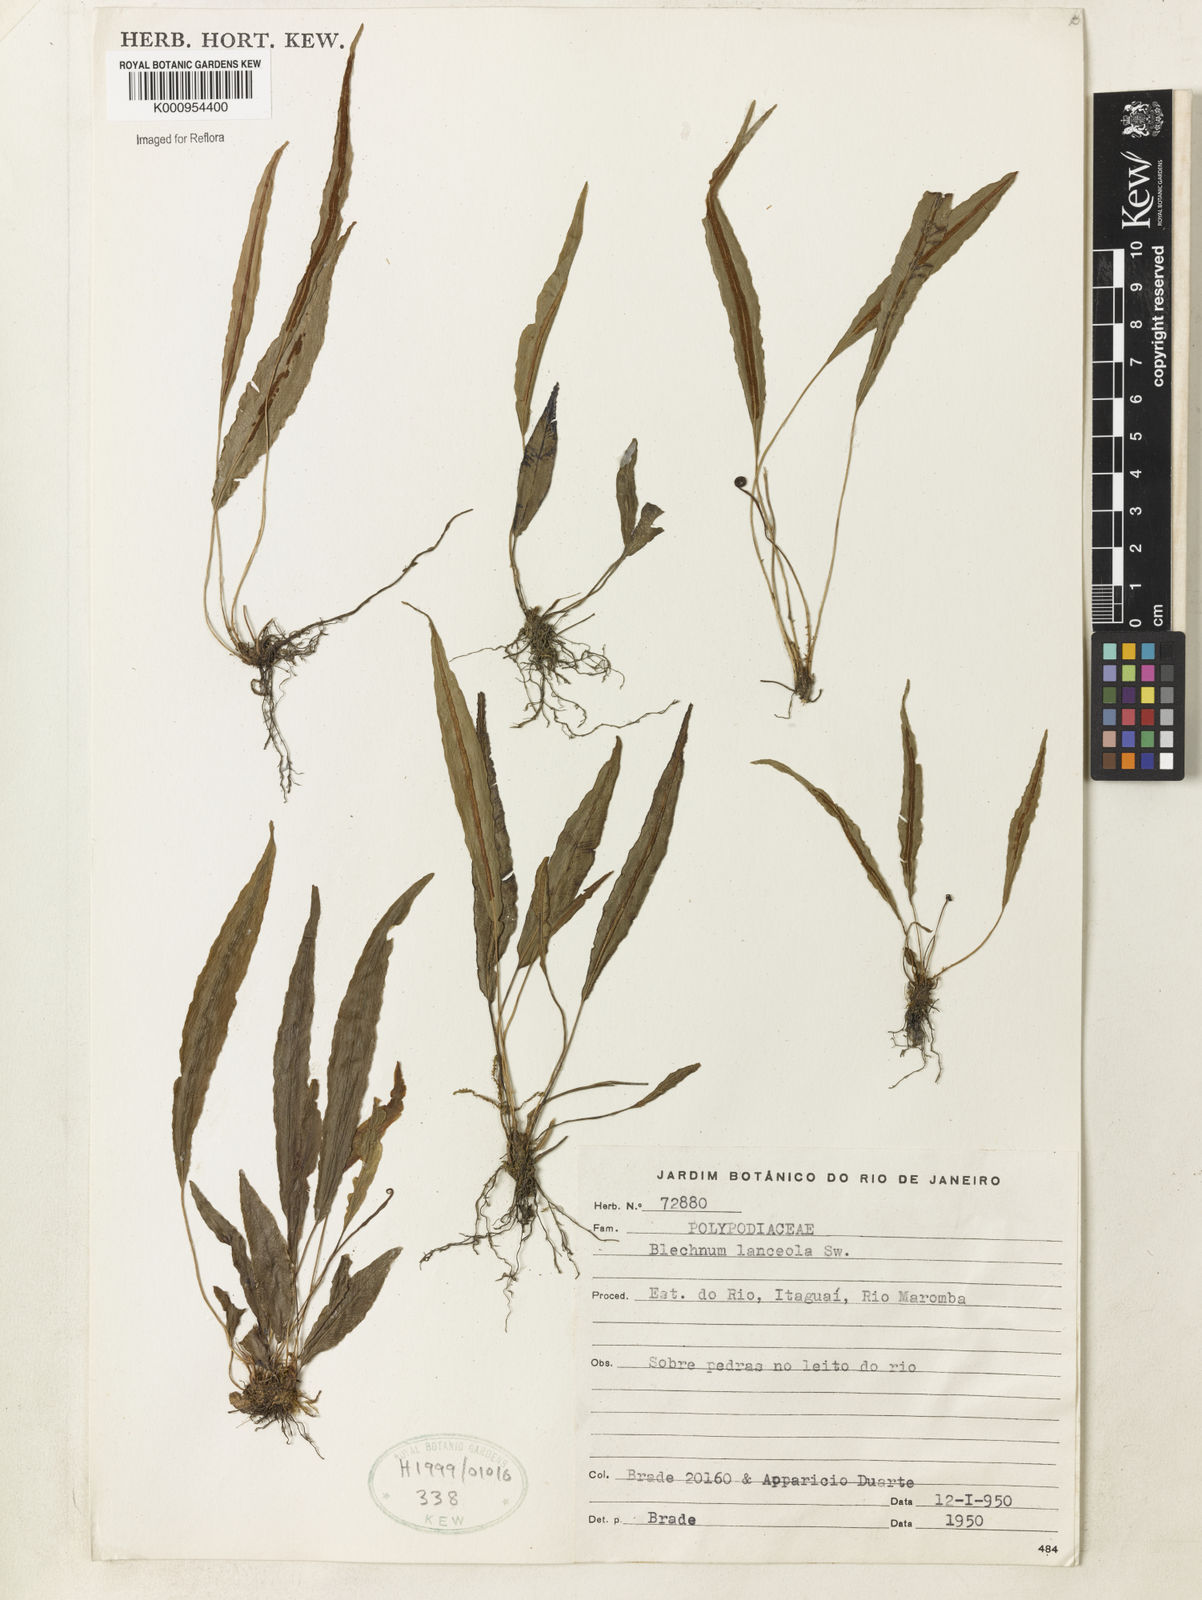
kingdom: Plantae
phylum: Tracheophyta
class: Polypodiopsida
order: Polypodiales
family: Blechnaceae
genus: Blechnum
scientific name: Blechnum lanceola
